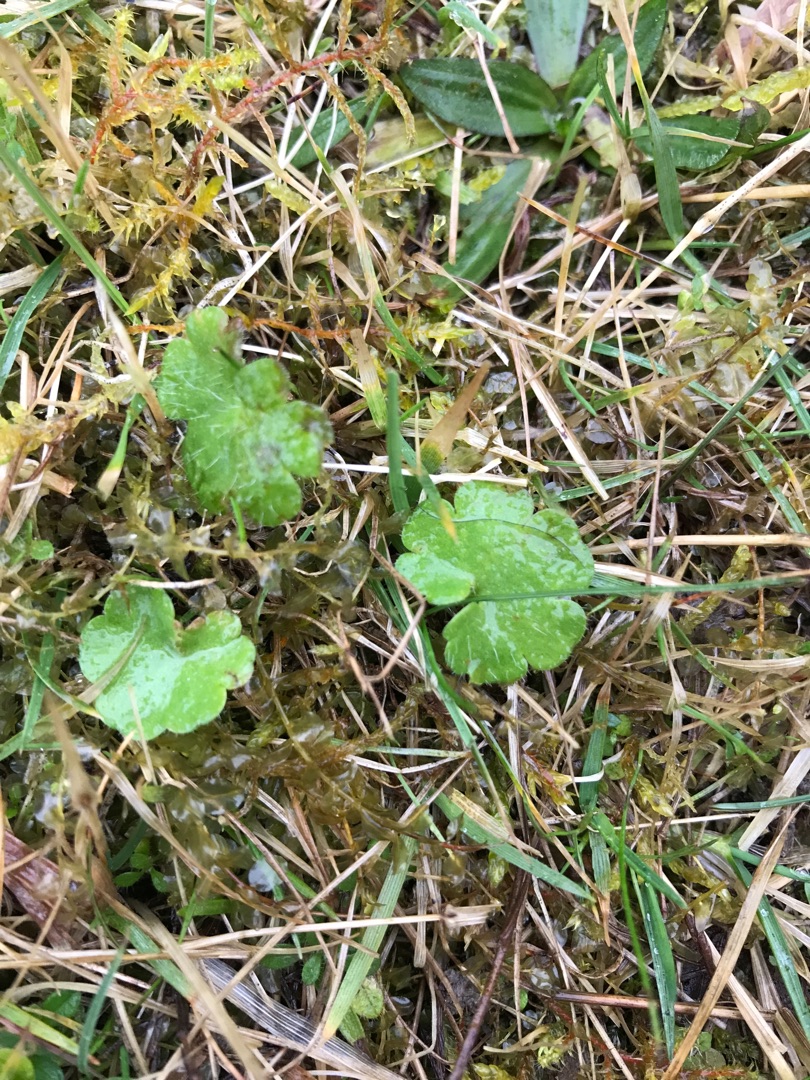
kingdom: Plantae
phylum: Tracheophyta
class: Magnoliopsida
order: Saxifragales
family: Saxifragaceae
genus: Saxifraga
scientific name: Saxifraga granulata
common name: Kornet stenbræk
